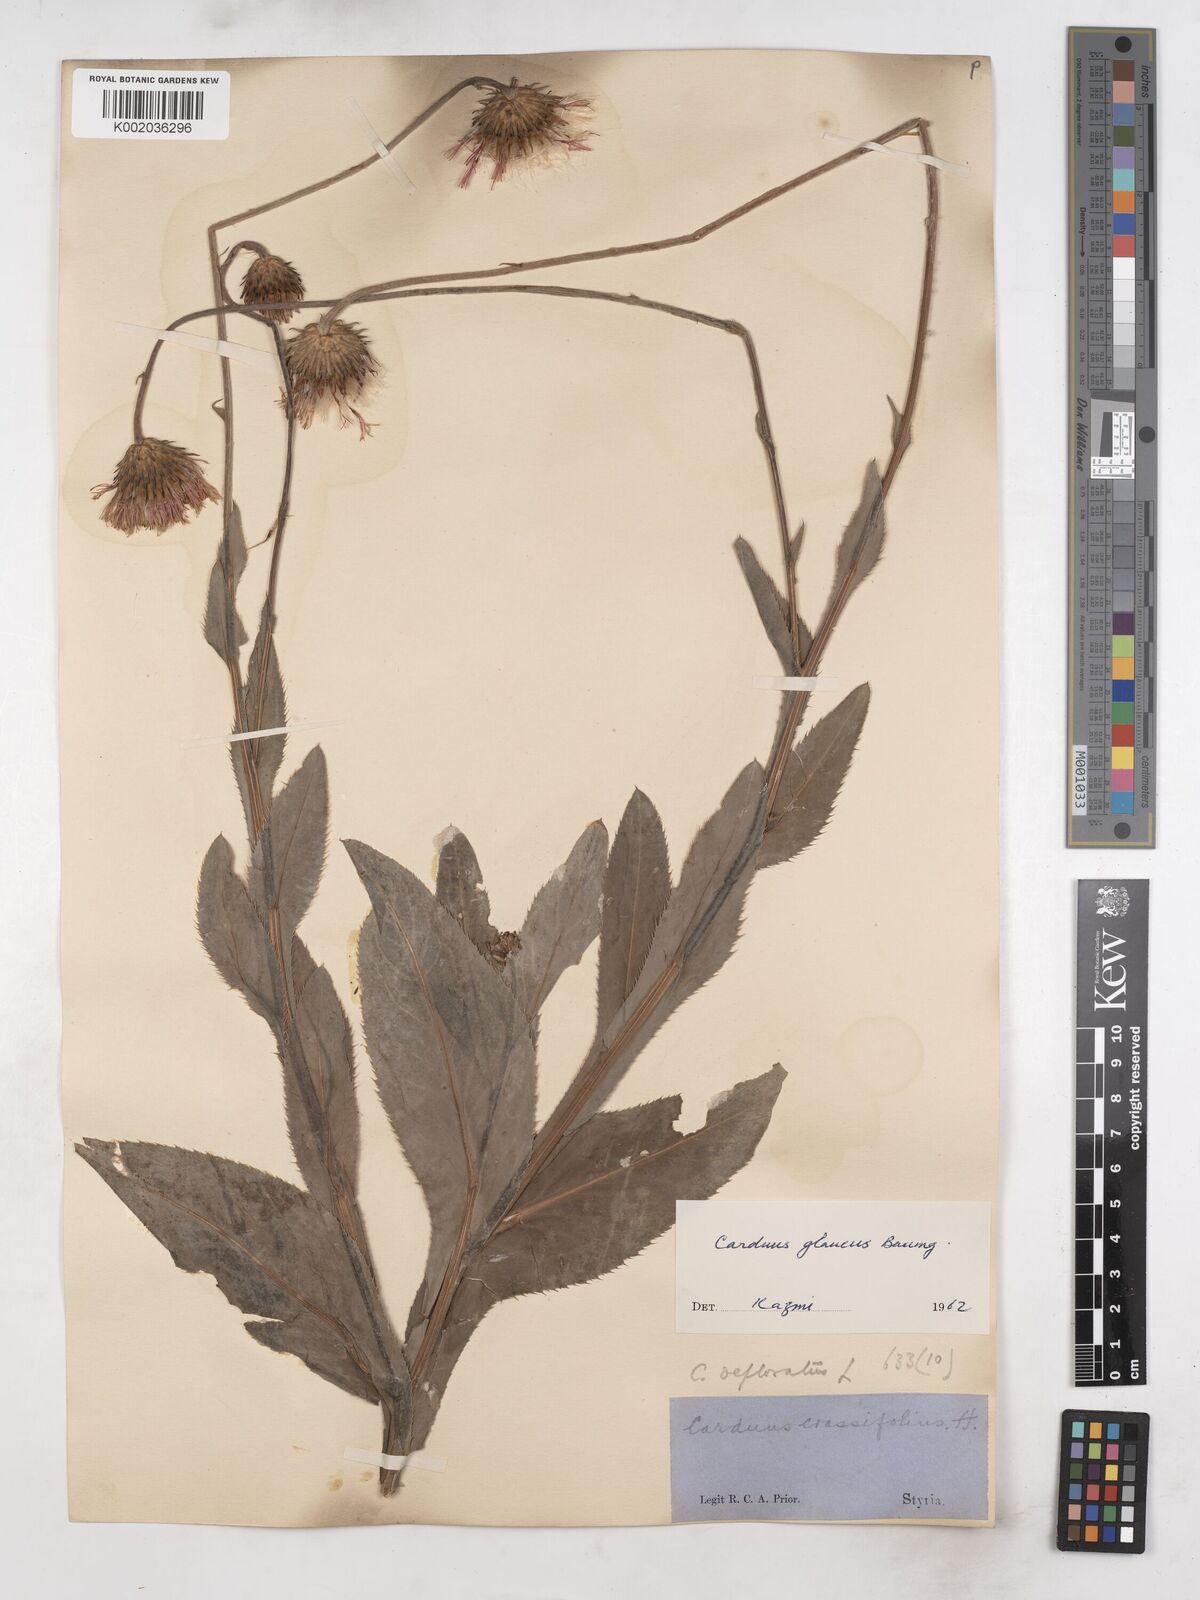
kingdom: Plantae
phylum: Tracheophyta
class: Magnoliopsida
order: Asterales
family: Asteraceae
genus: Carduus
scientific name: Carduus defloratus
